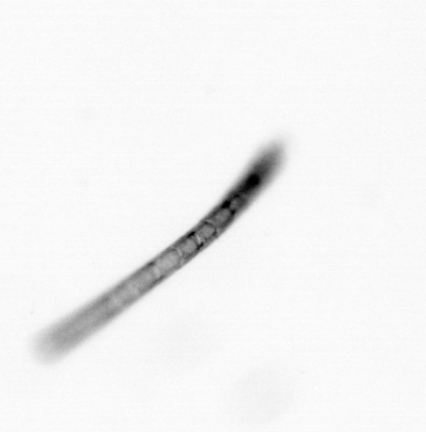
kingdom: Chromista
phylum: Ochrophyta
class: Bacillariophyceae
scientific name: Bacillariophyceae
